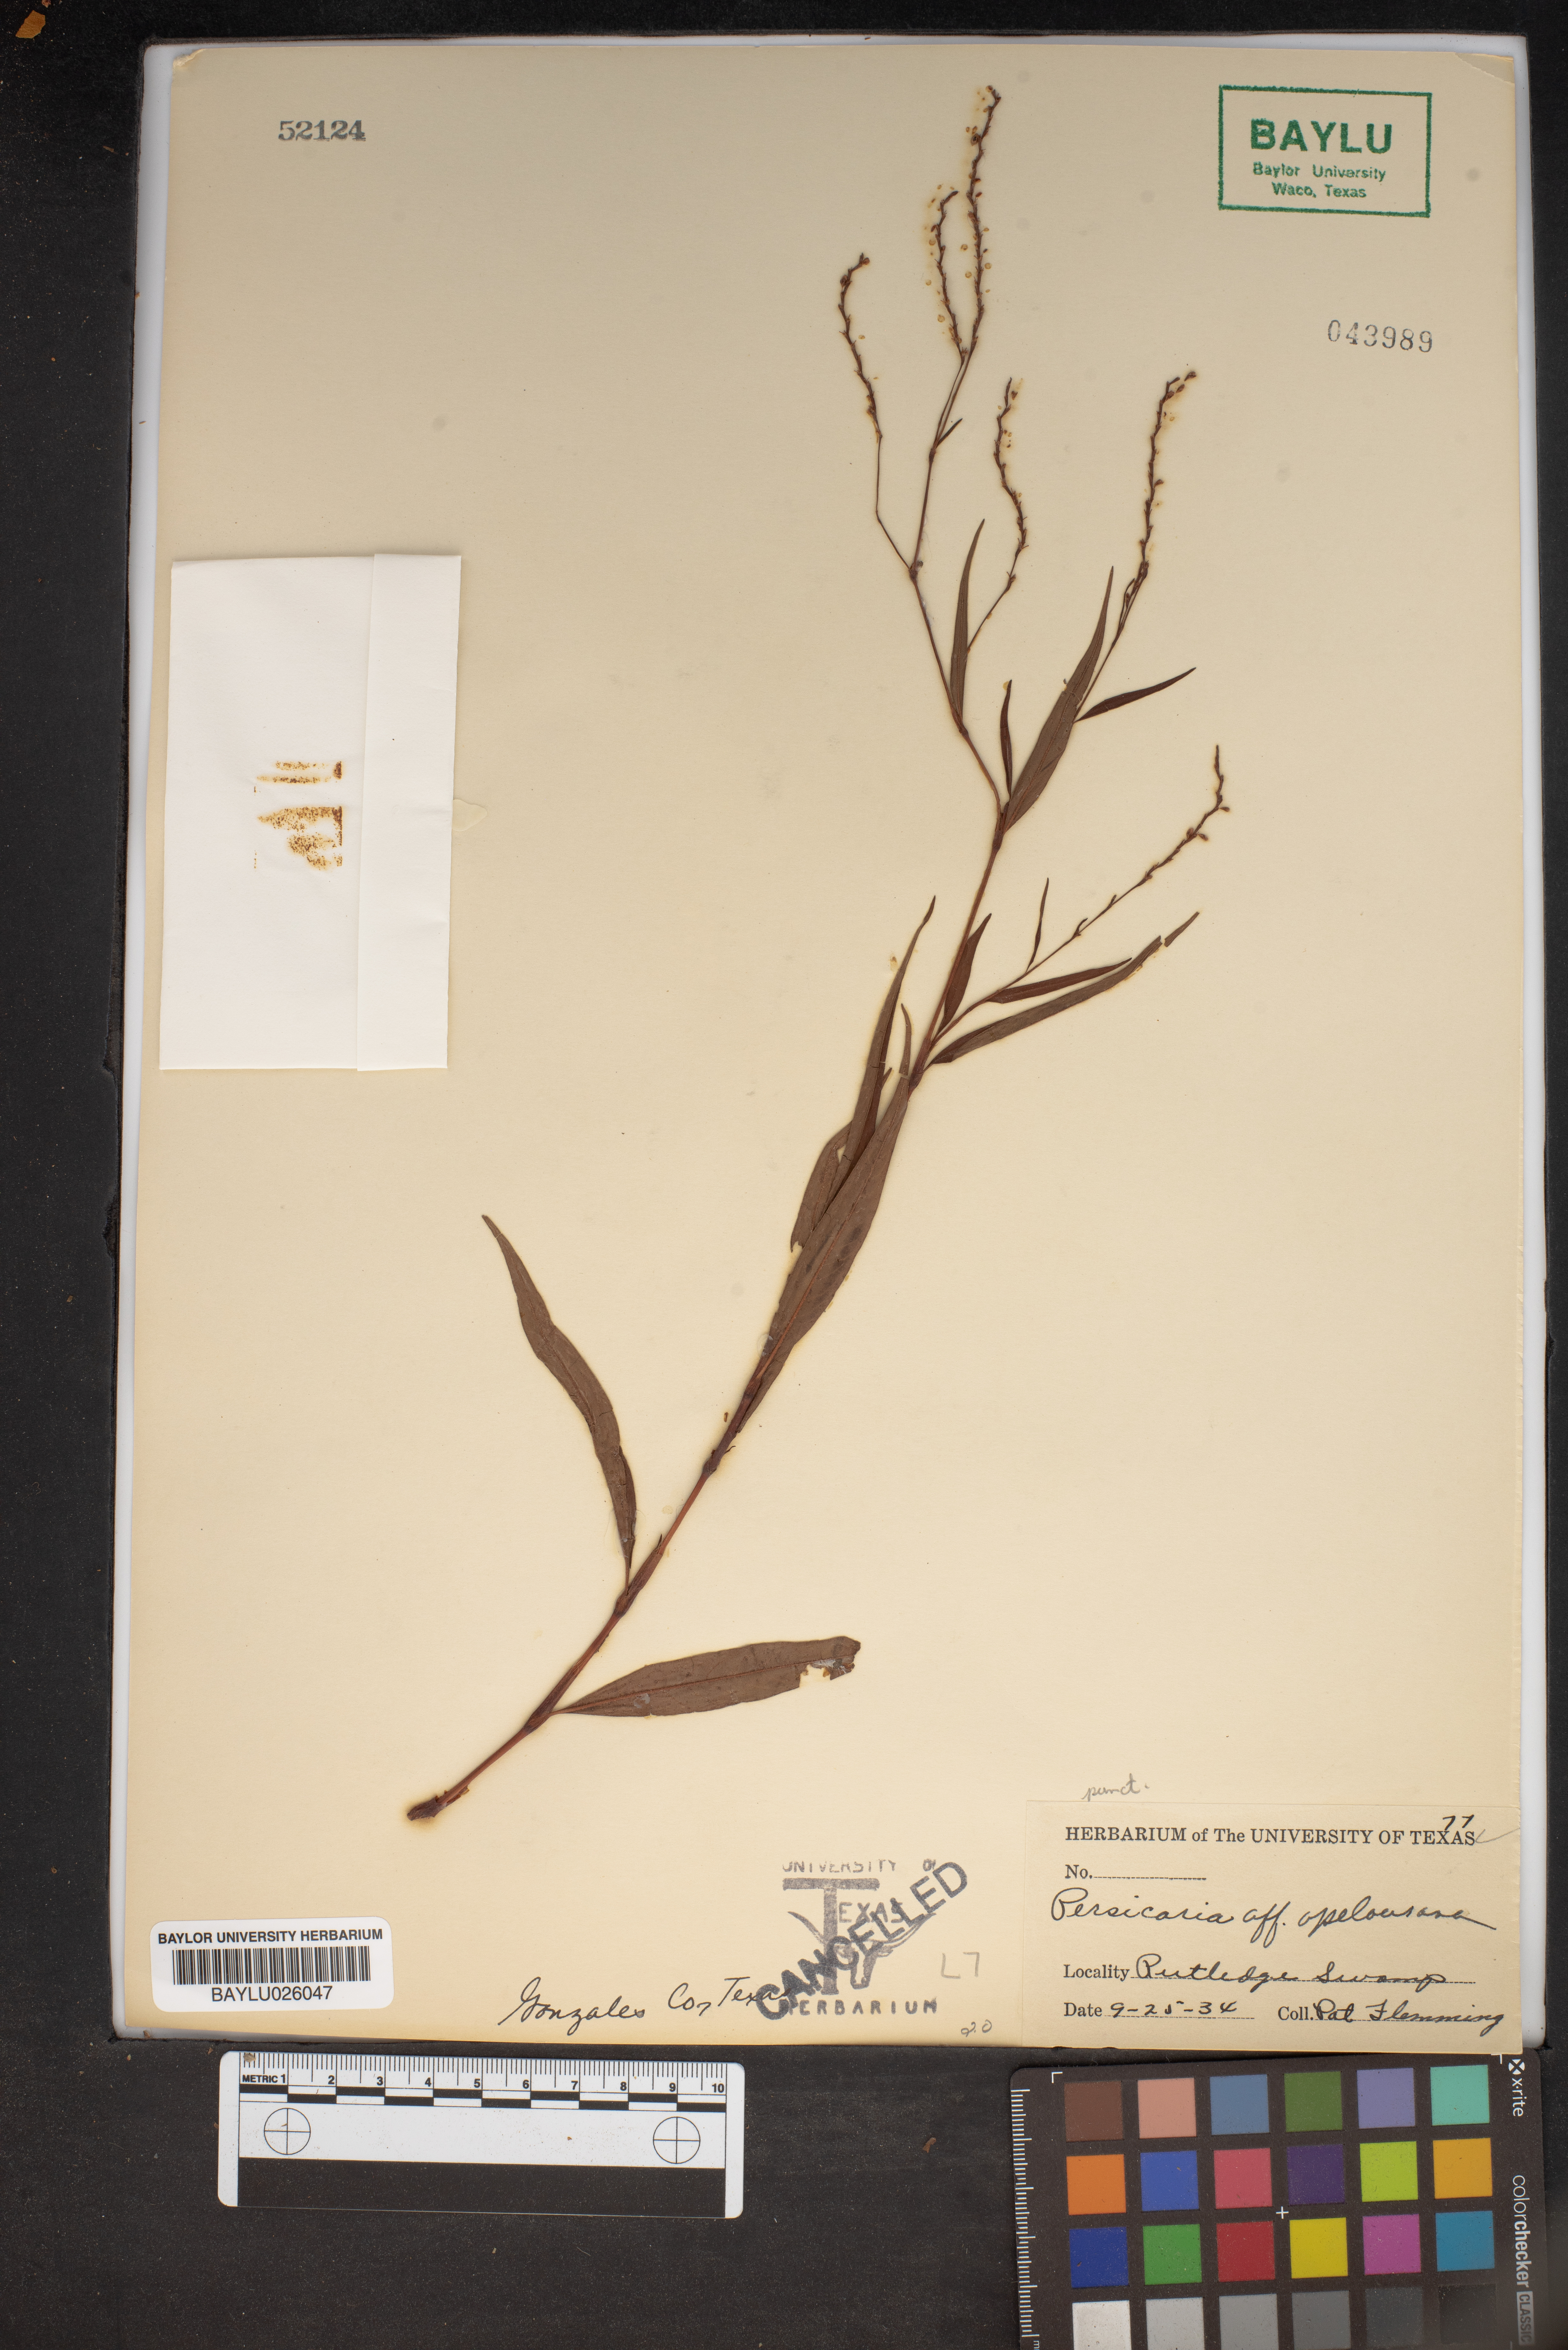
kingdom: Plantae
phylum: Tracheophyta
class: Magnoliopsida
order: Caryophyllales
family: Polygonaceae
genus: Persicaria
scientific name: Persicaria
